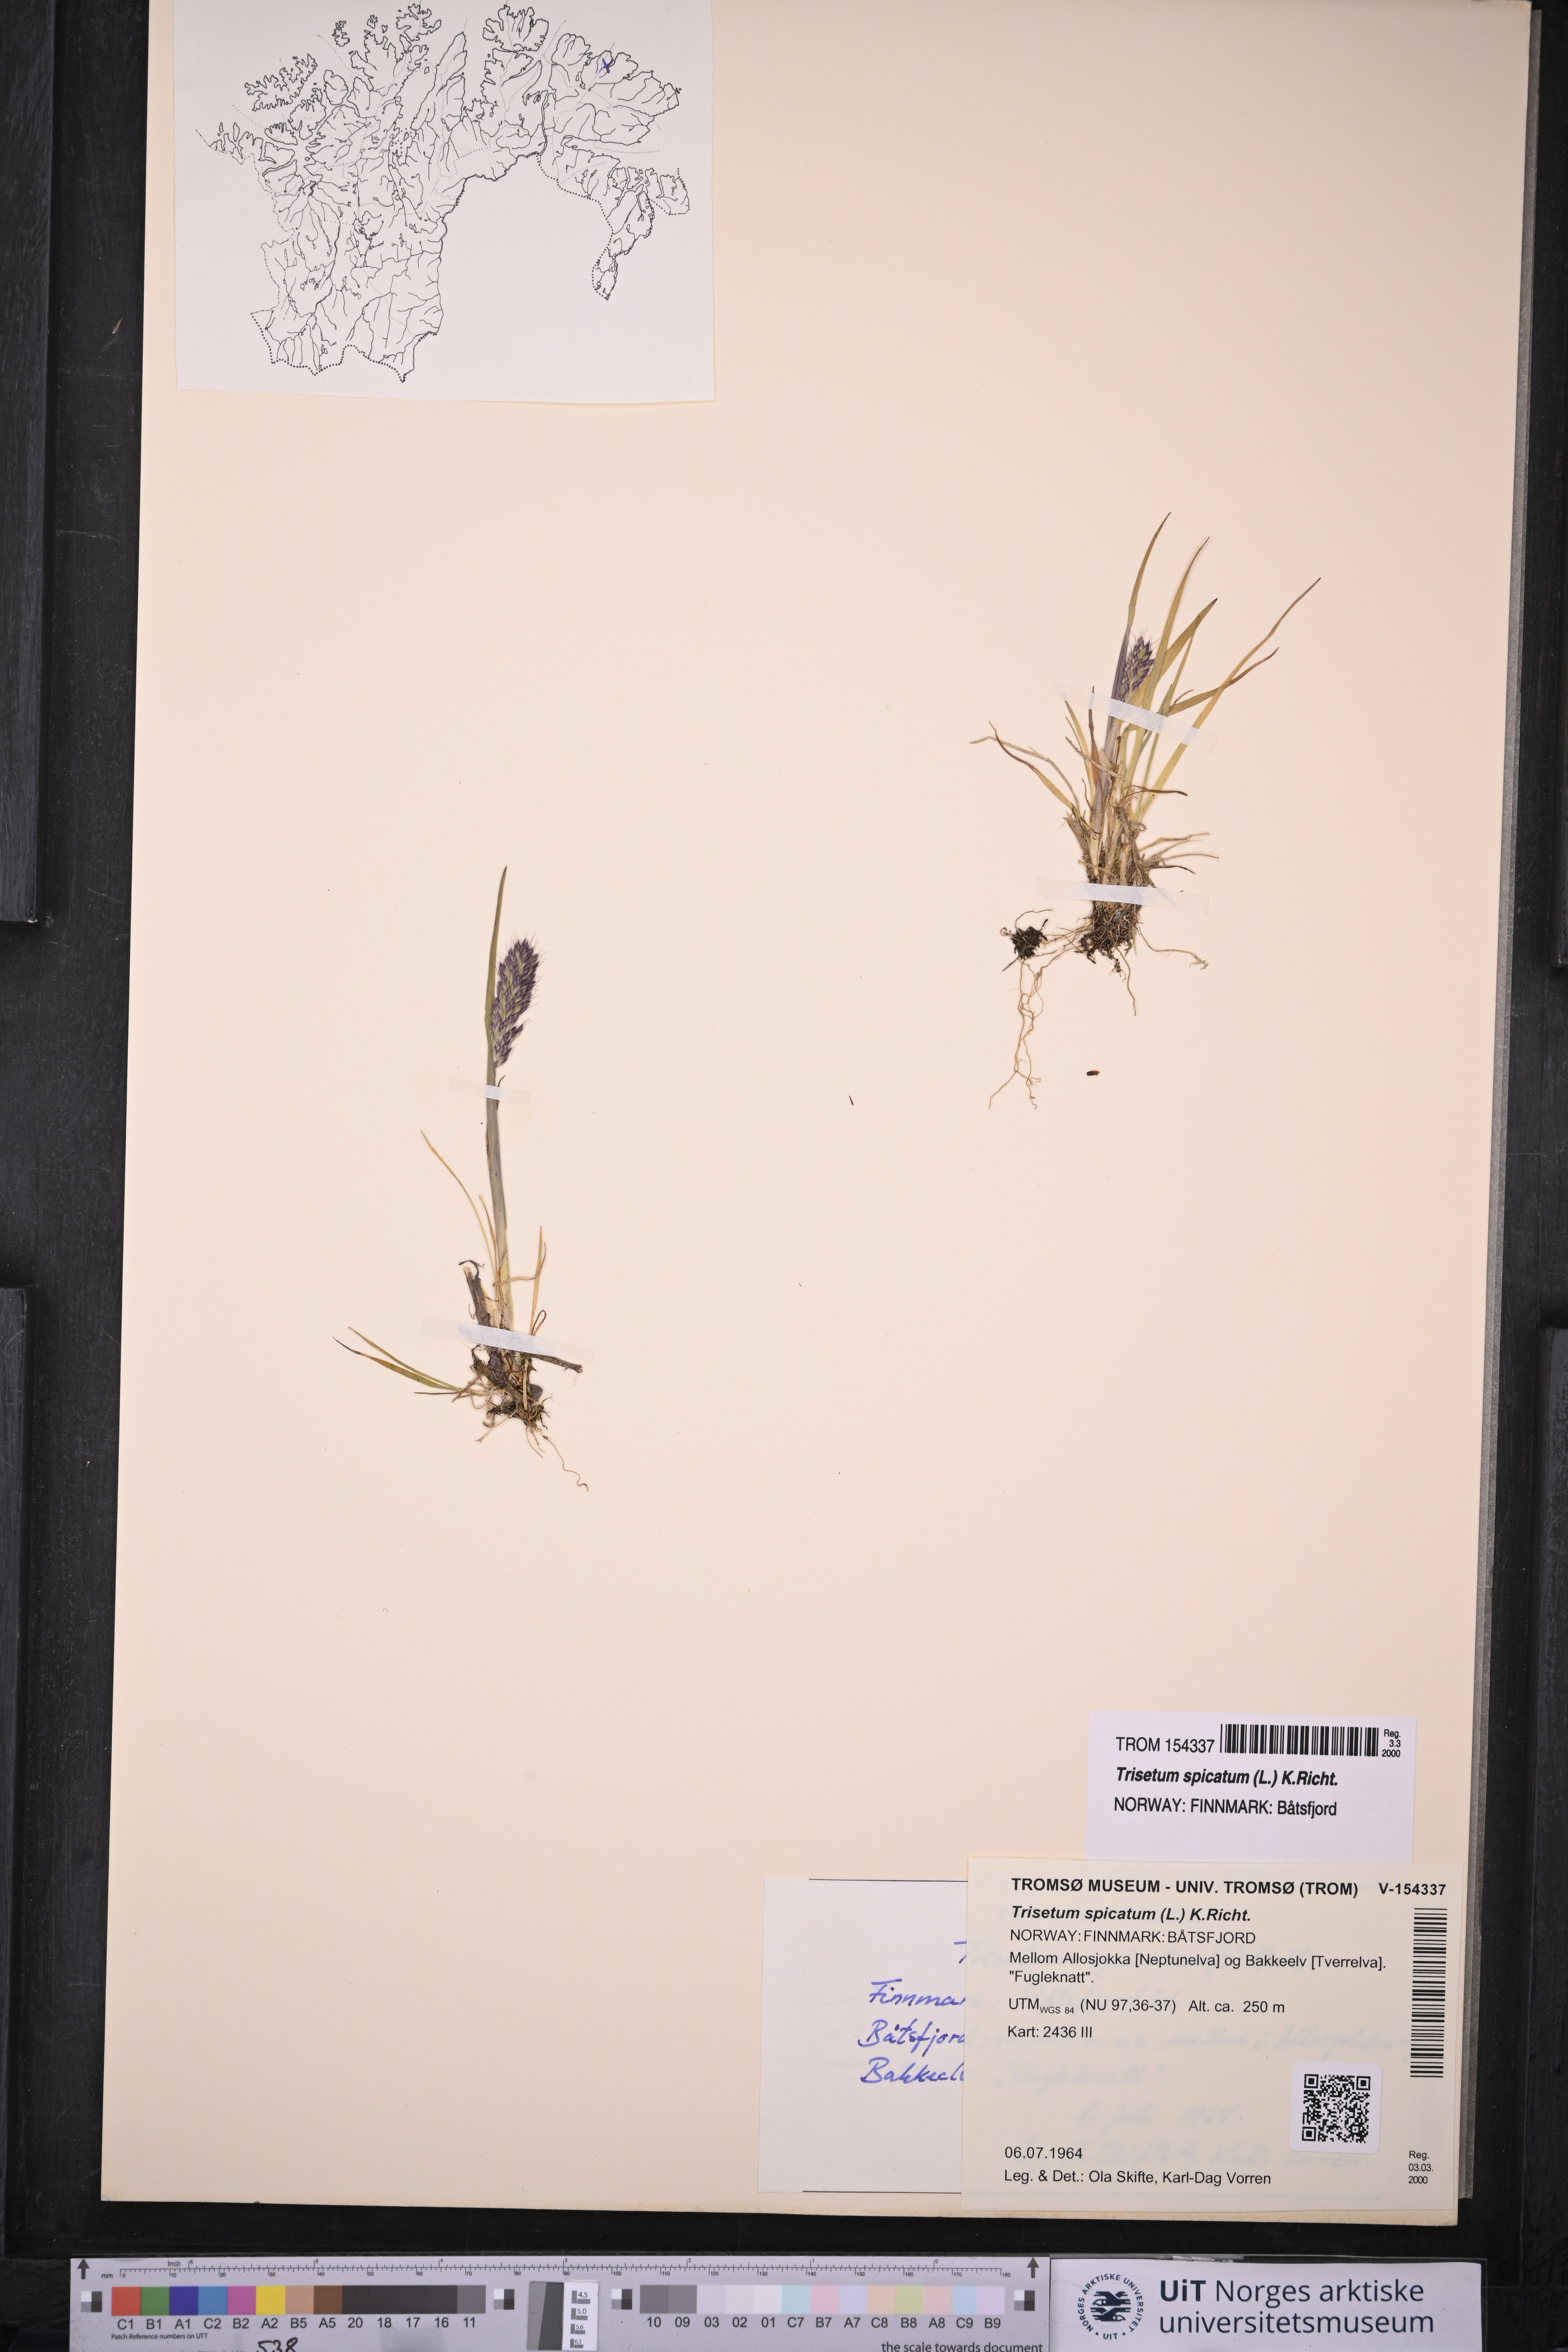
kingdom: Plantae
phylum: Tracheophyta
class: Liliopsida
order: Poales
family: Poaceae
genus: Koeleria
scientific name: Koeleria spicata
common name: Mountain trisetum
